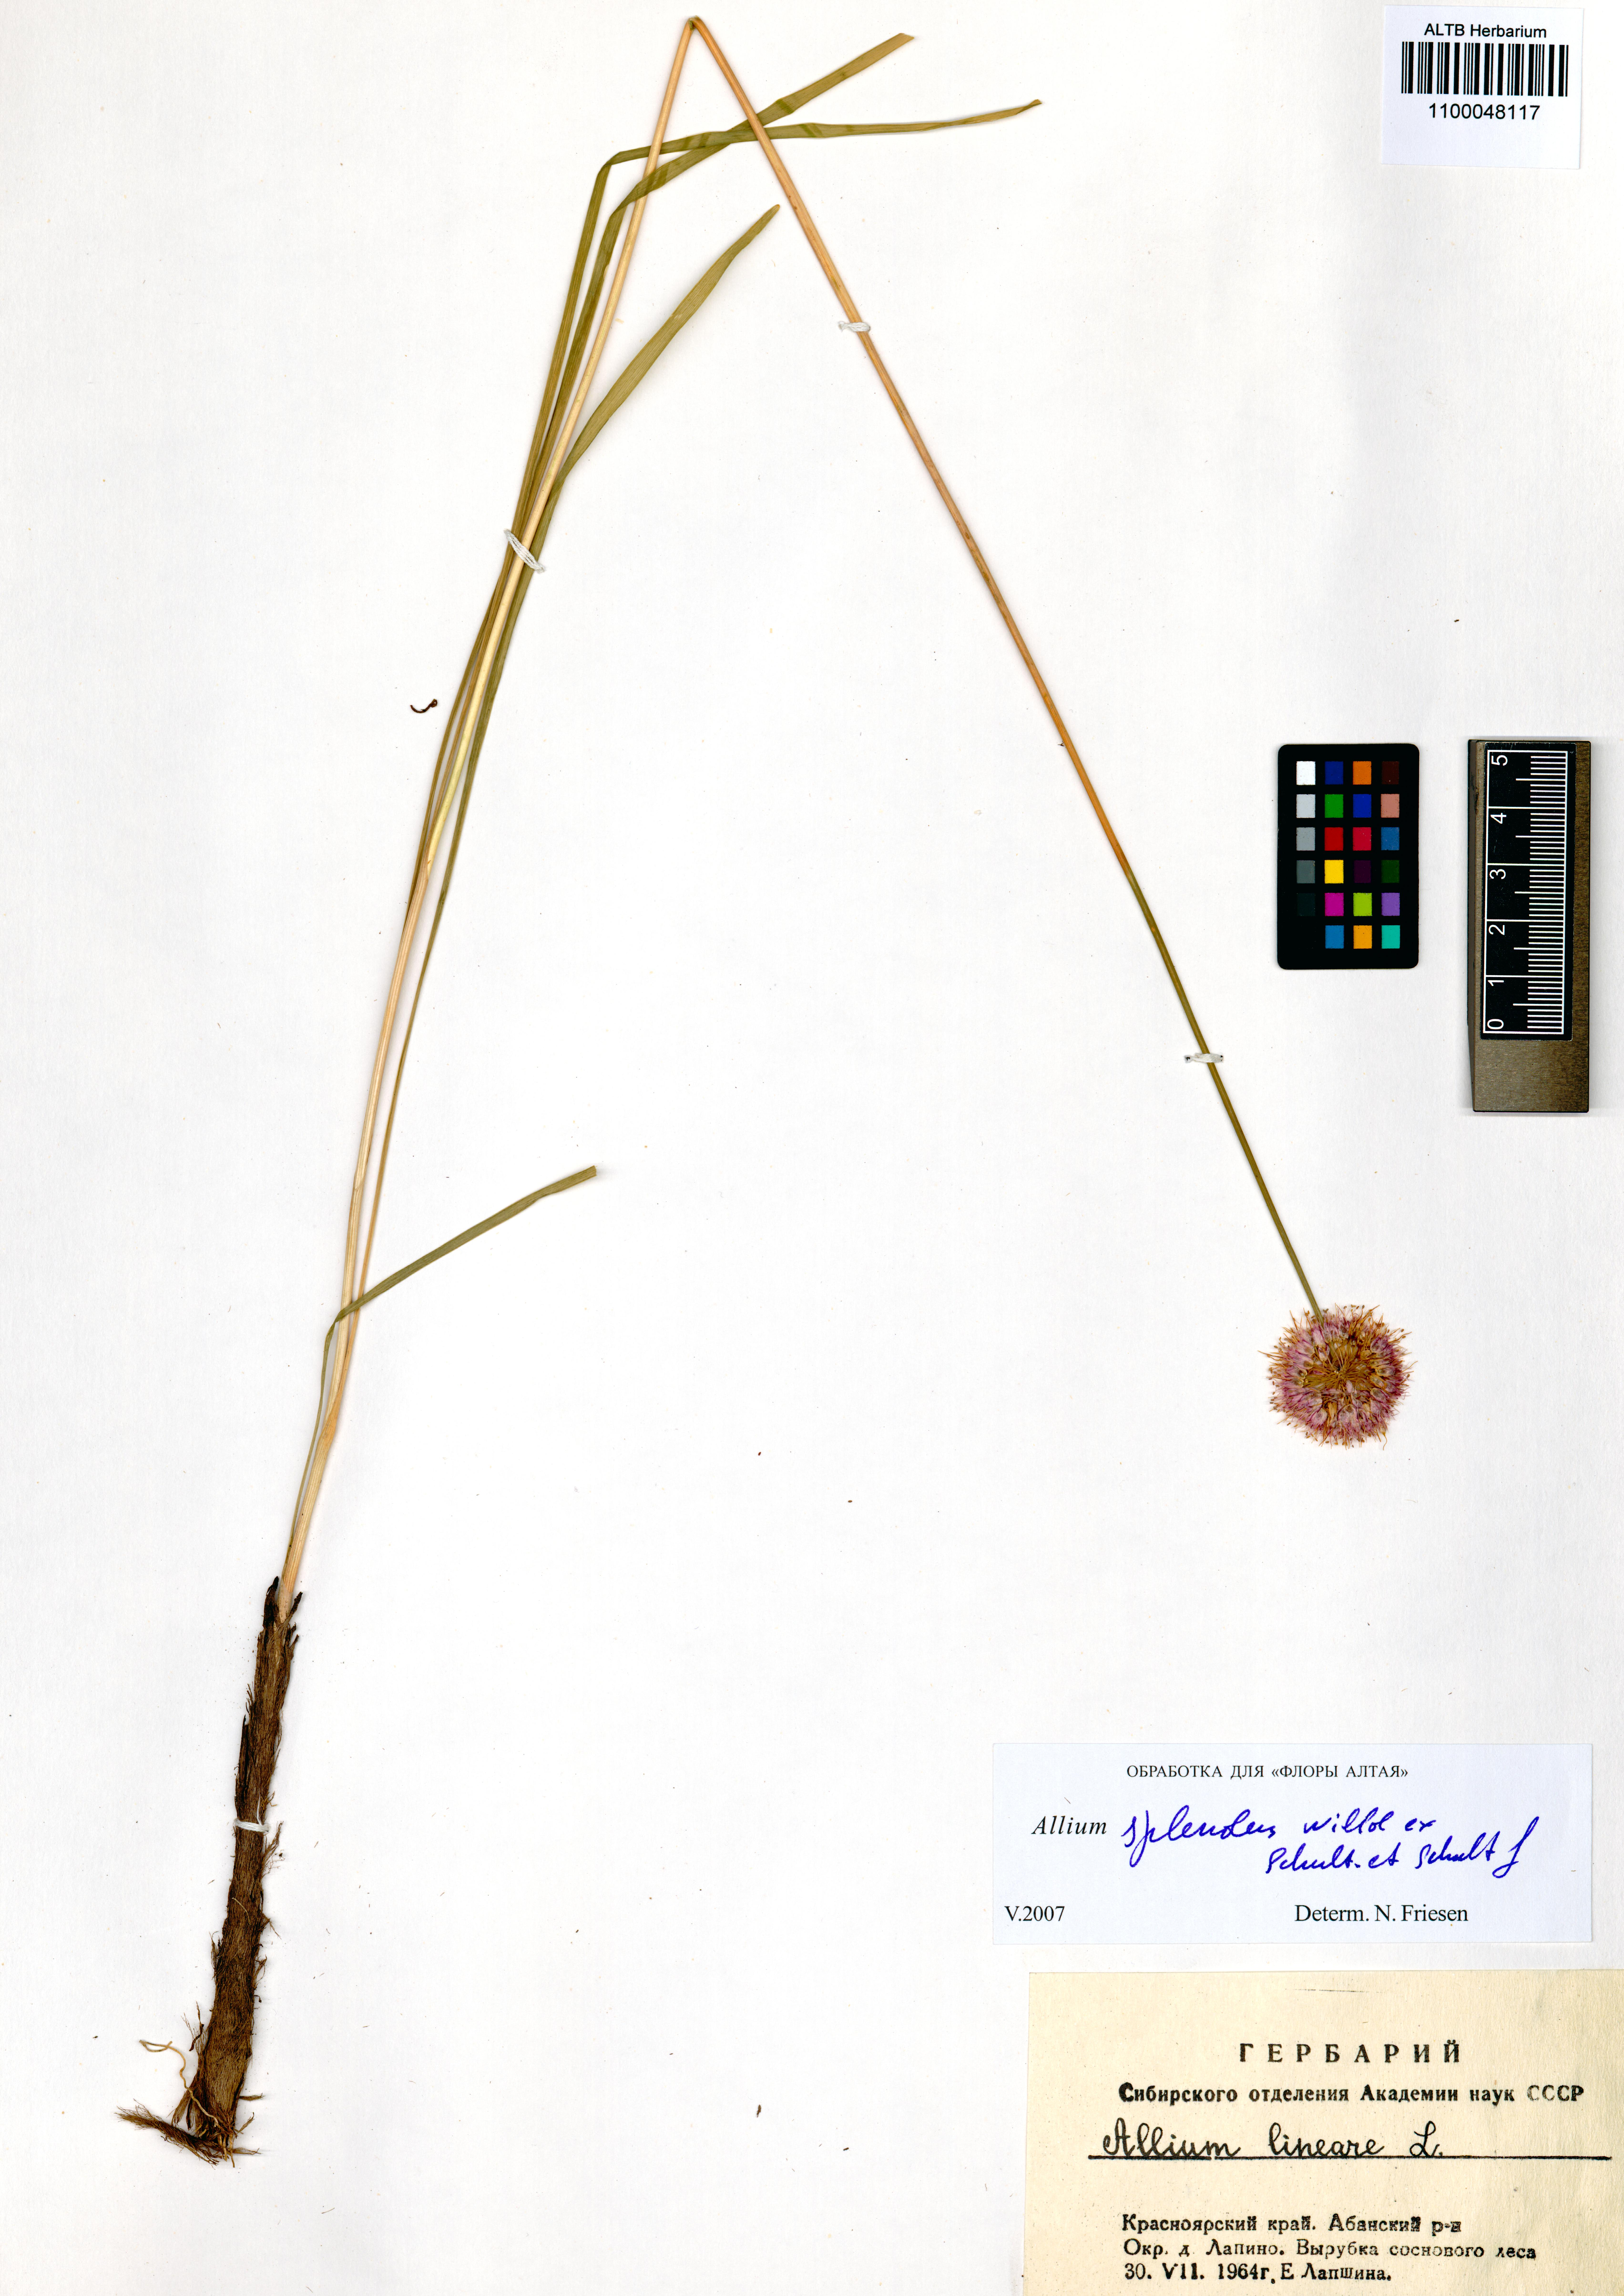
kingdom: Plantae
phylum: Tracheophyta
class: Liliopsida
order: Asparagales
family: Amaryllidaceae
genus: Allium
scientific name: Allium splendens
